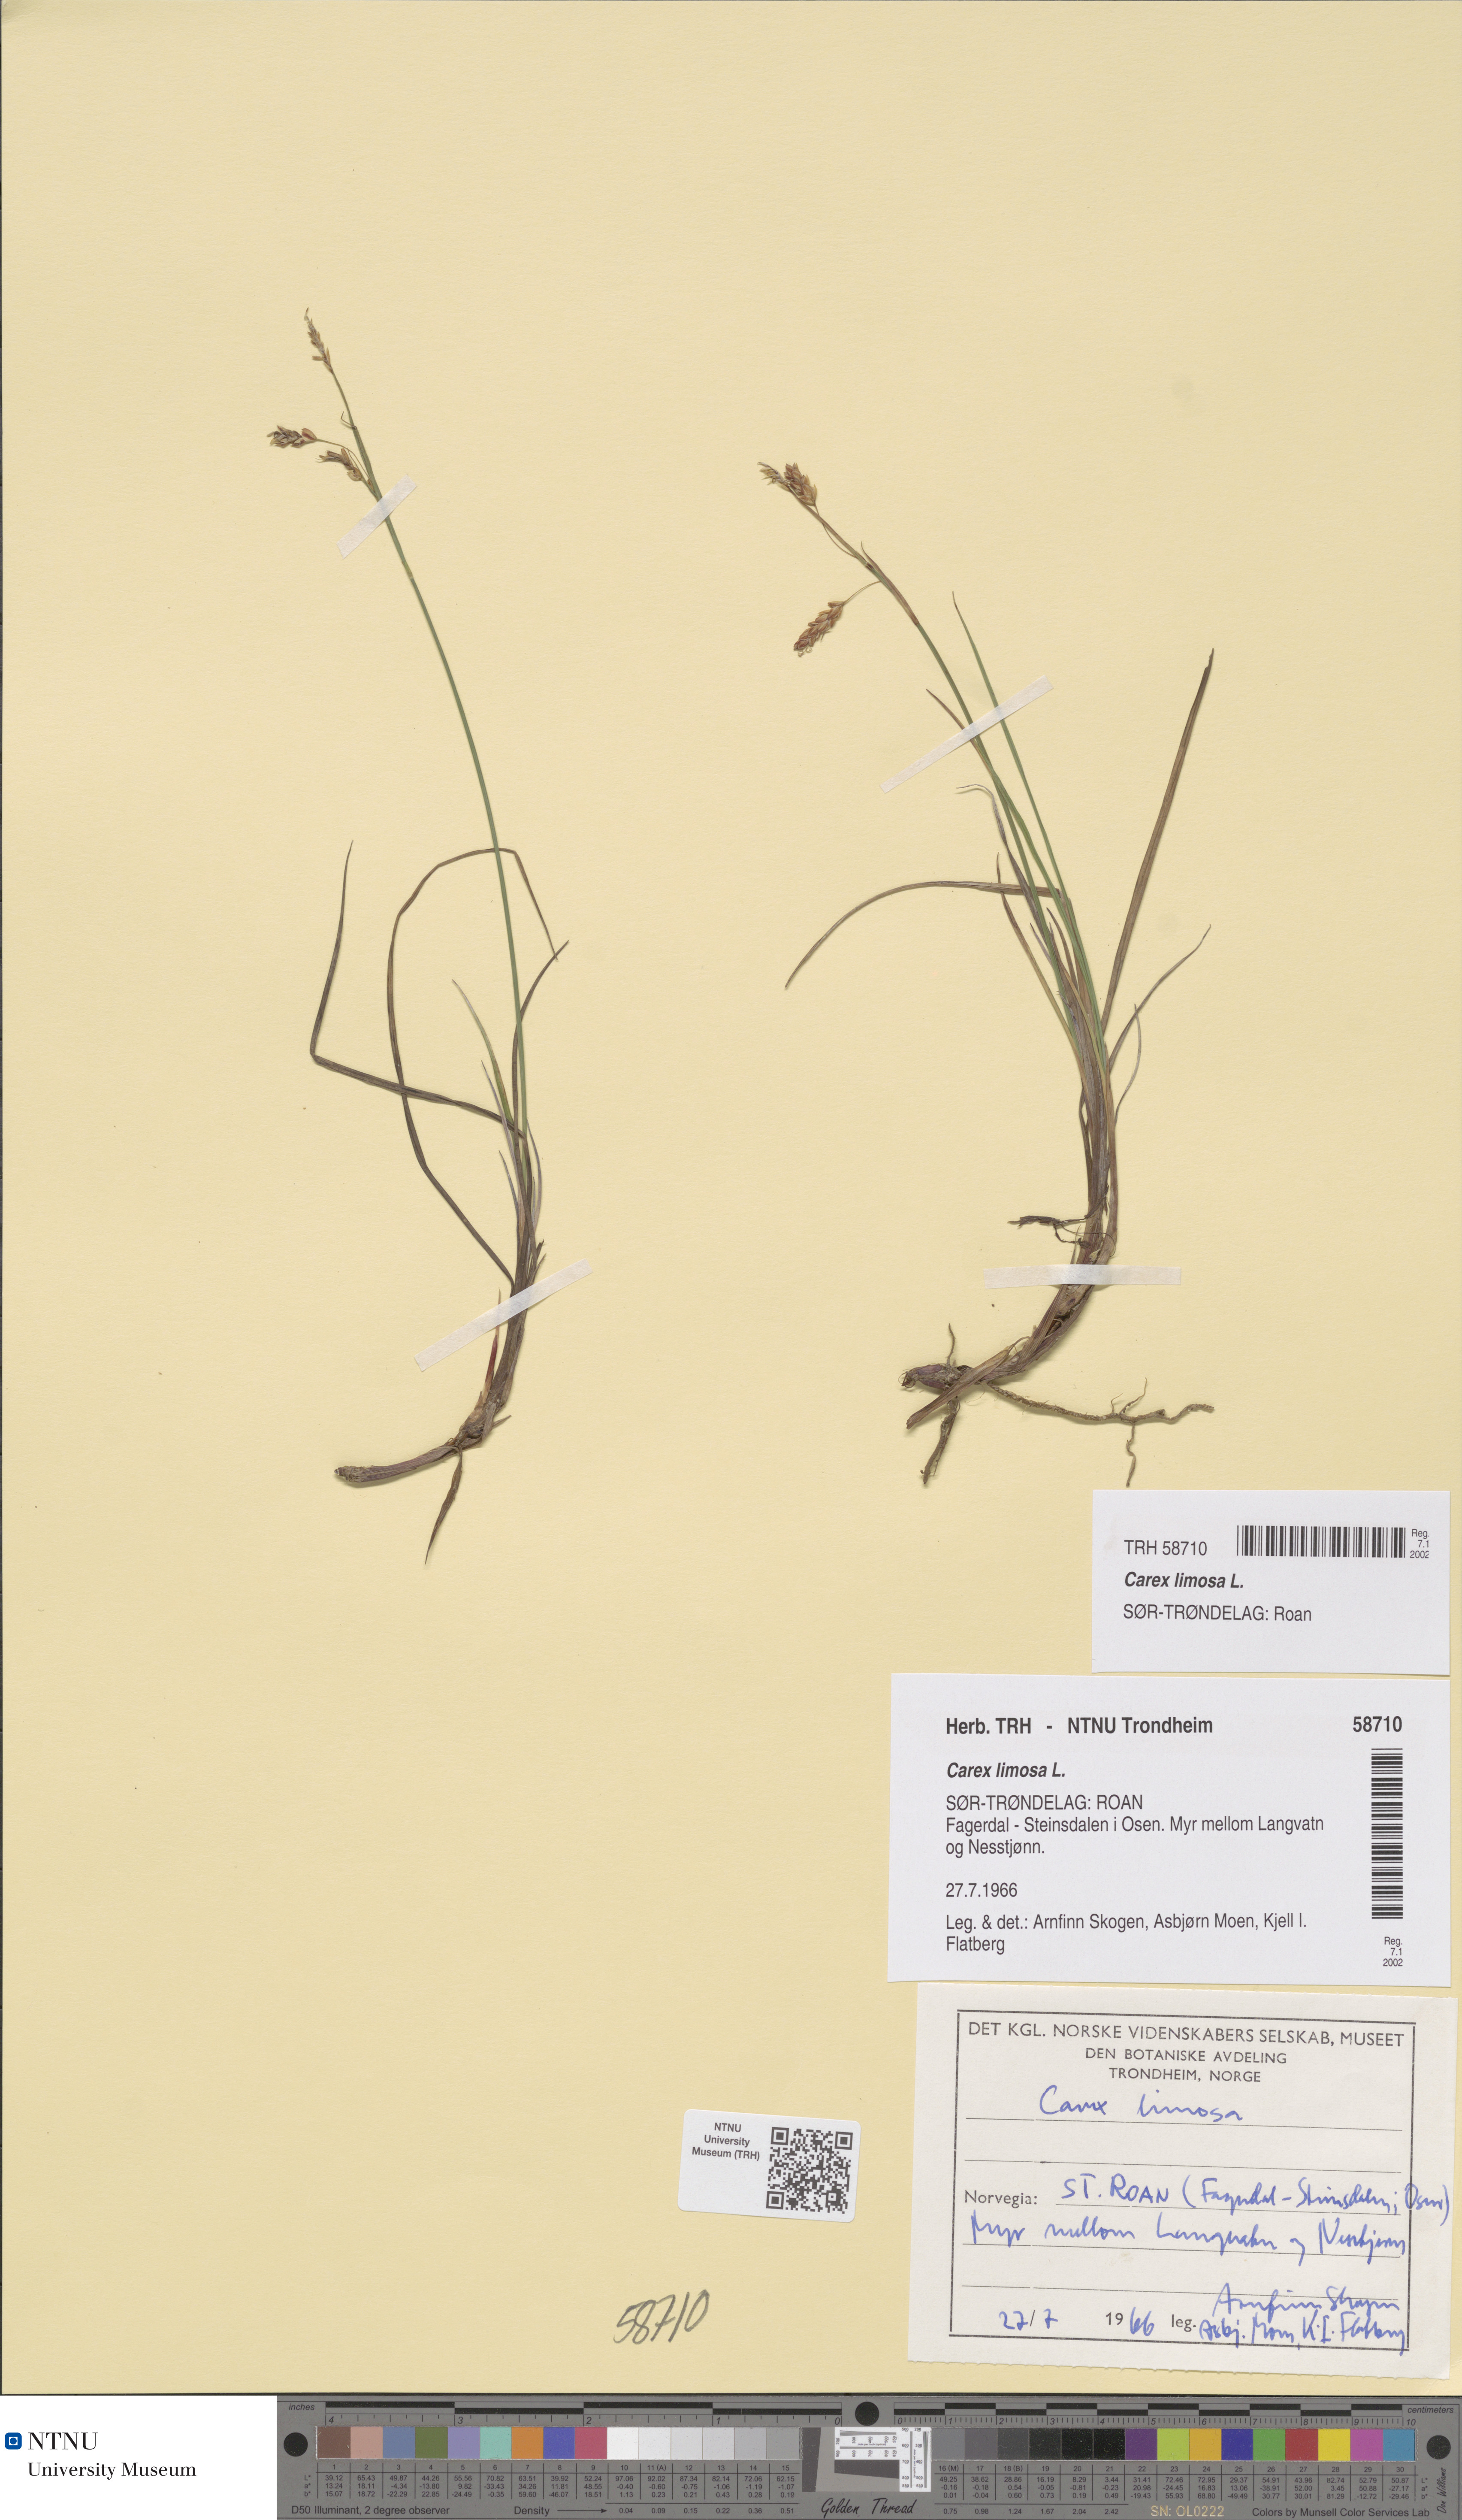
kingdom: Plantae
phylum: Tracheophyta
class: Liliopsida
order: Poales
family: Cyperaceae
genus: Carex
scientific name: Carex limosa
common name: Bog sedge
